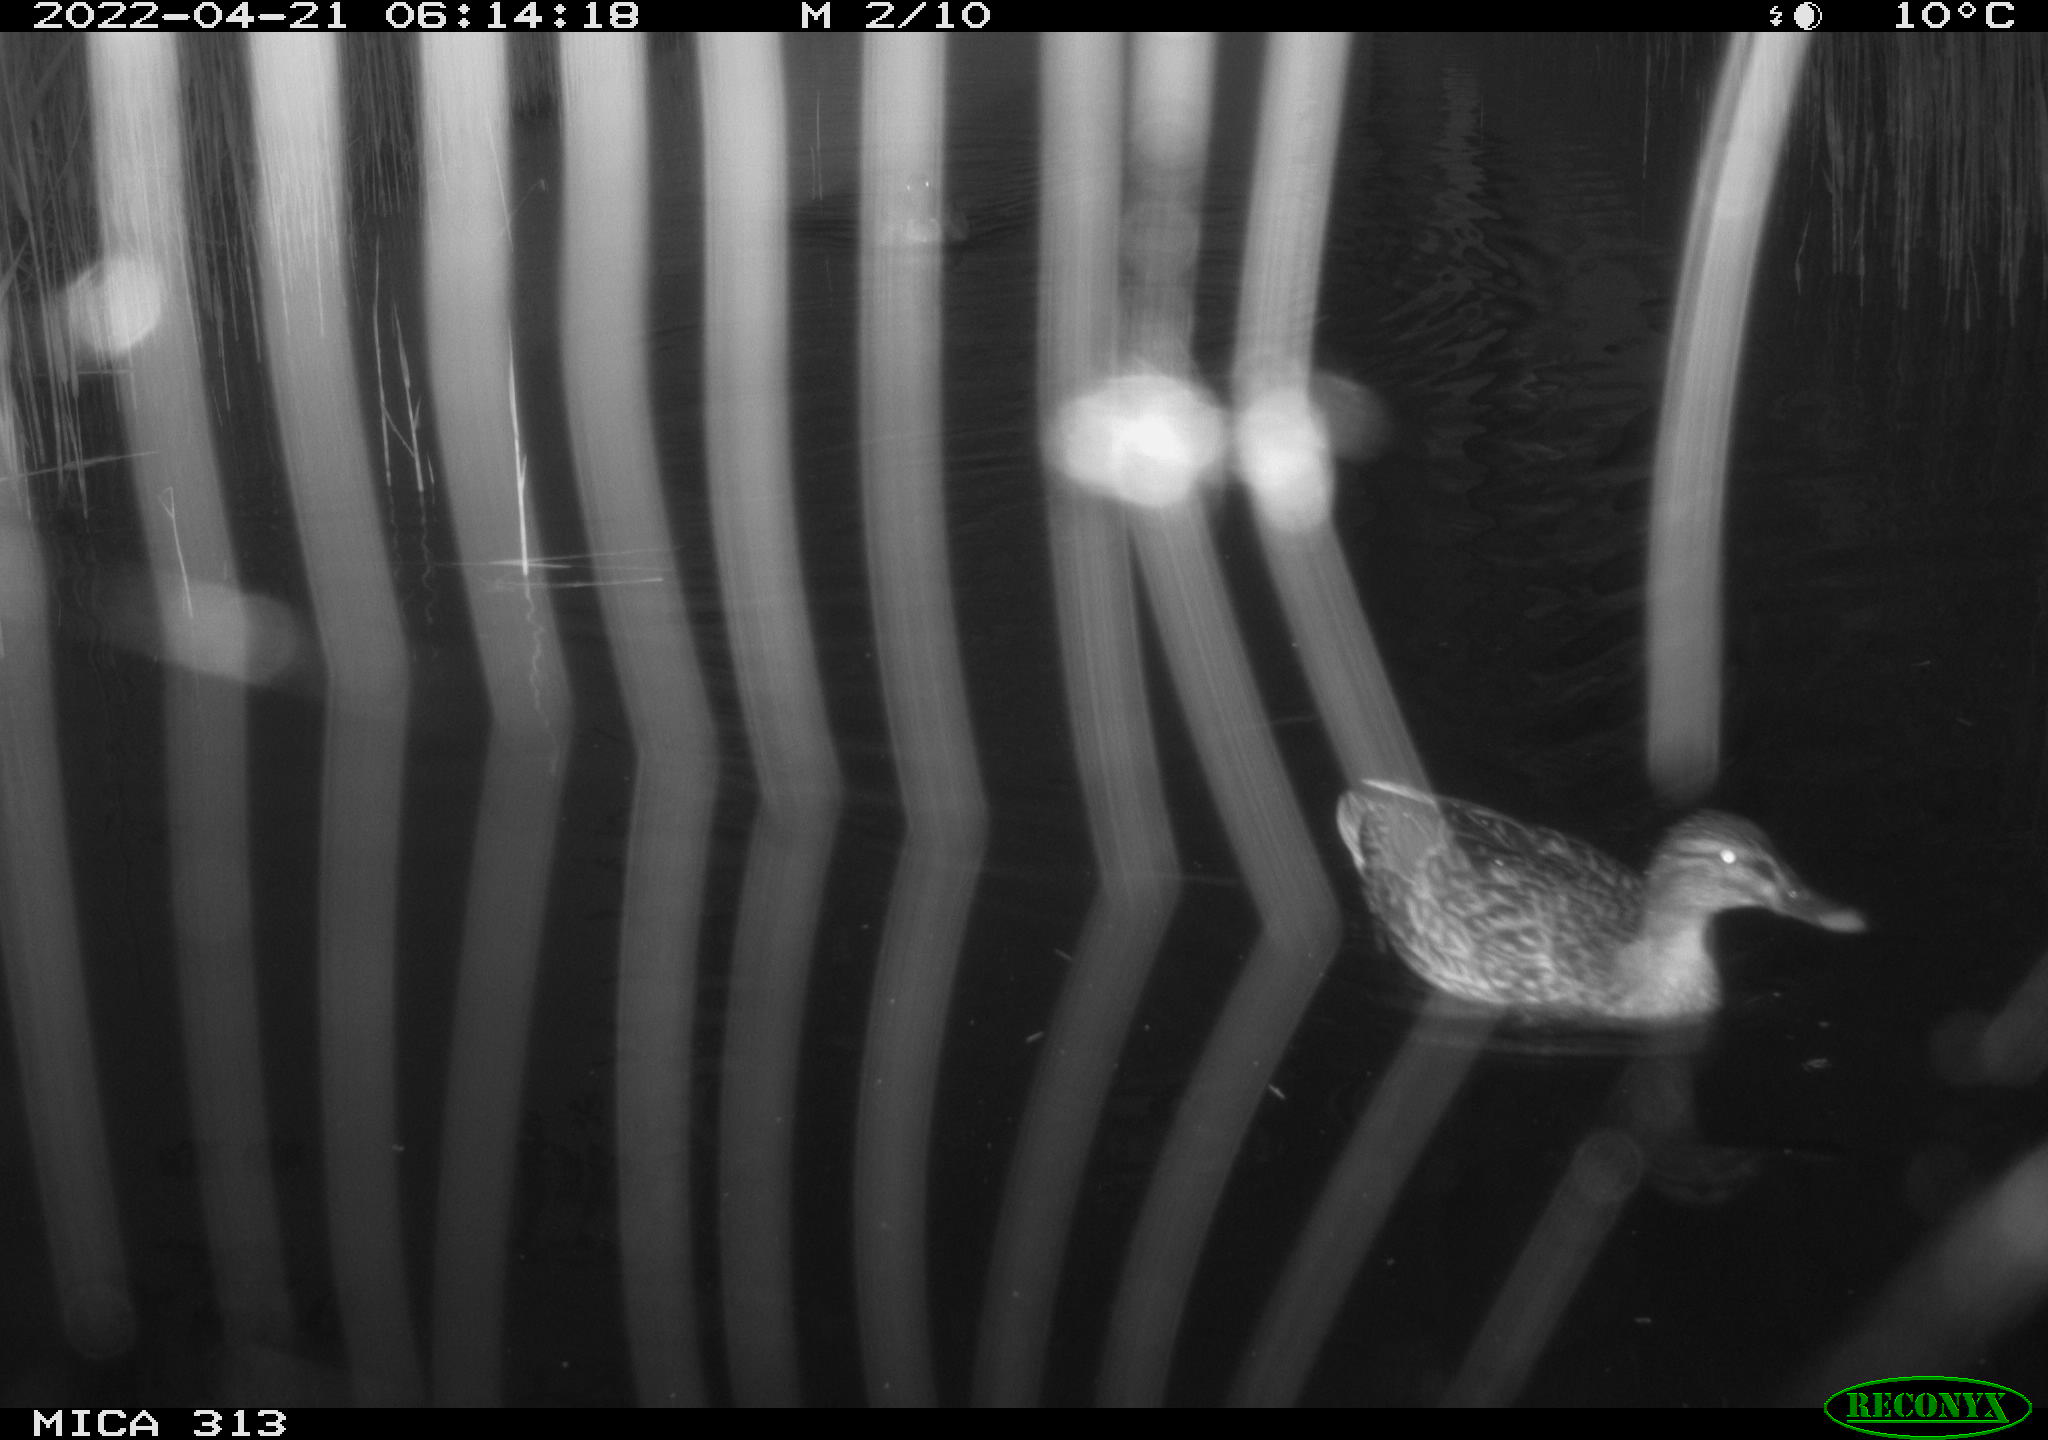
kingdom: Animalia
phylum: Chordata
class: Aves
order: Anseriformes
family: Anatidae
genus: Mareca
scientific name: Mareca strepera
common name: Gadwall
